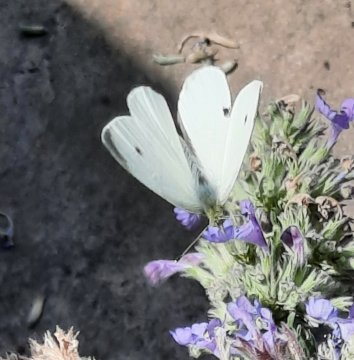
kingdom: Animalia
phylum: Arthropoda
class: Insecta
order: Lepidoptera
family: Pieridae
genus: Pieris
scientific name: Pieris rapae
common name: Cabbage White
